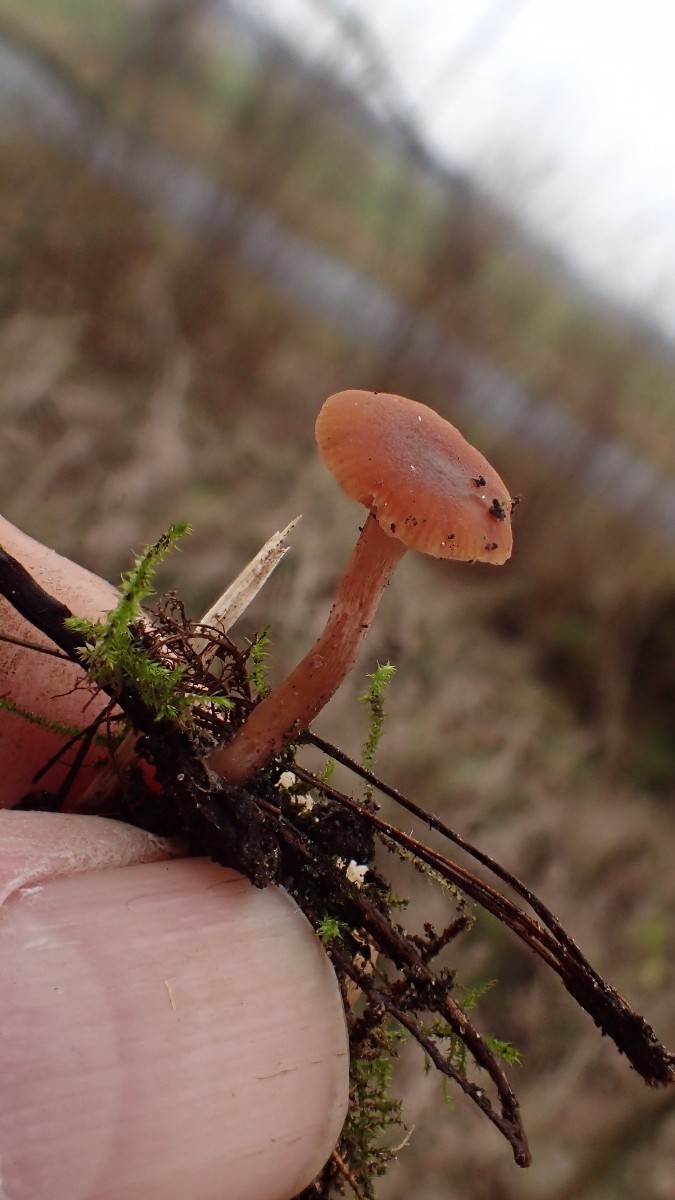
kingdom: Fungi
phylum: Basidiomycota
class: Agaricomycetes
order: Agaricales
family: Tubariaceae
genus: Tubaria
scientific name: Tubaria furfuracea
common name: kliddet fnughat
